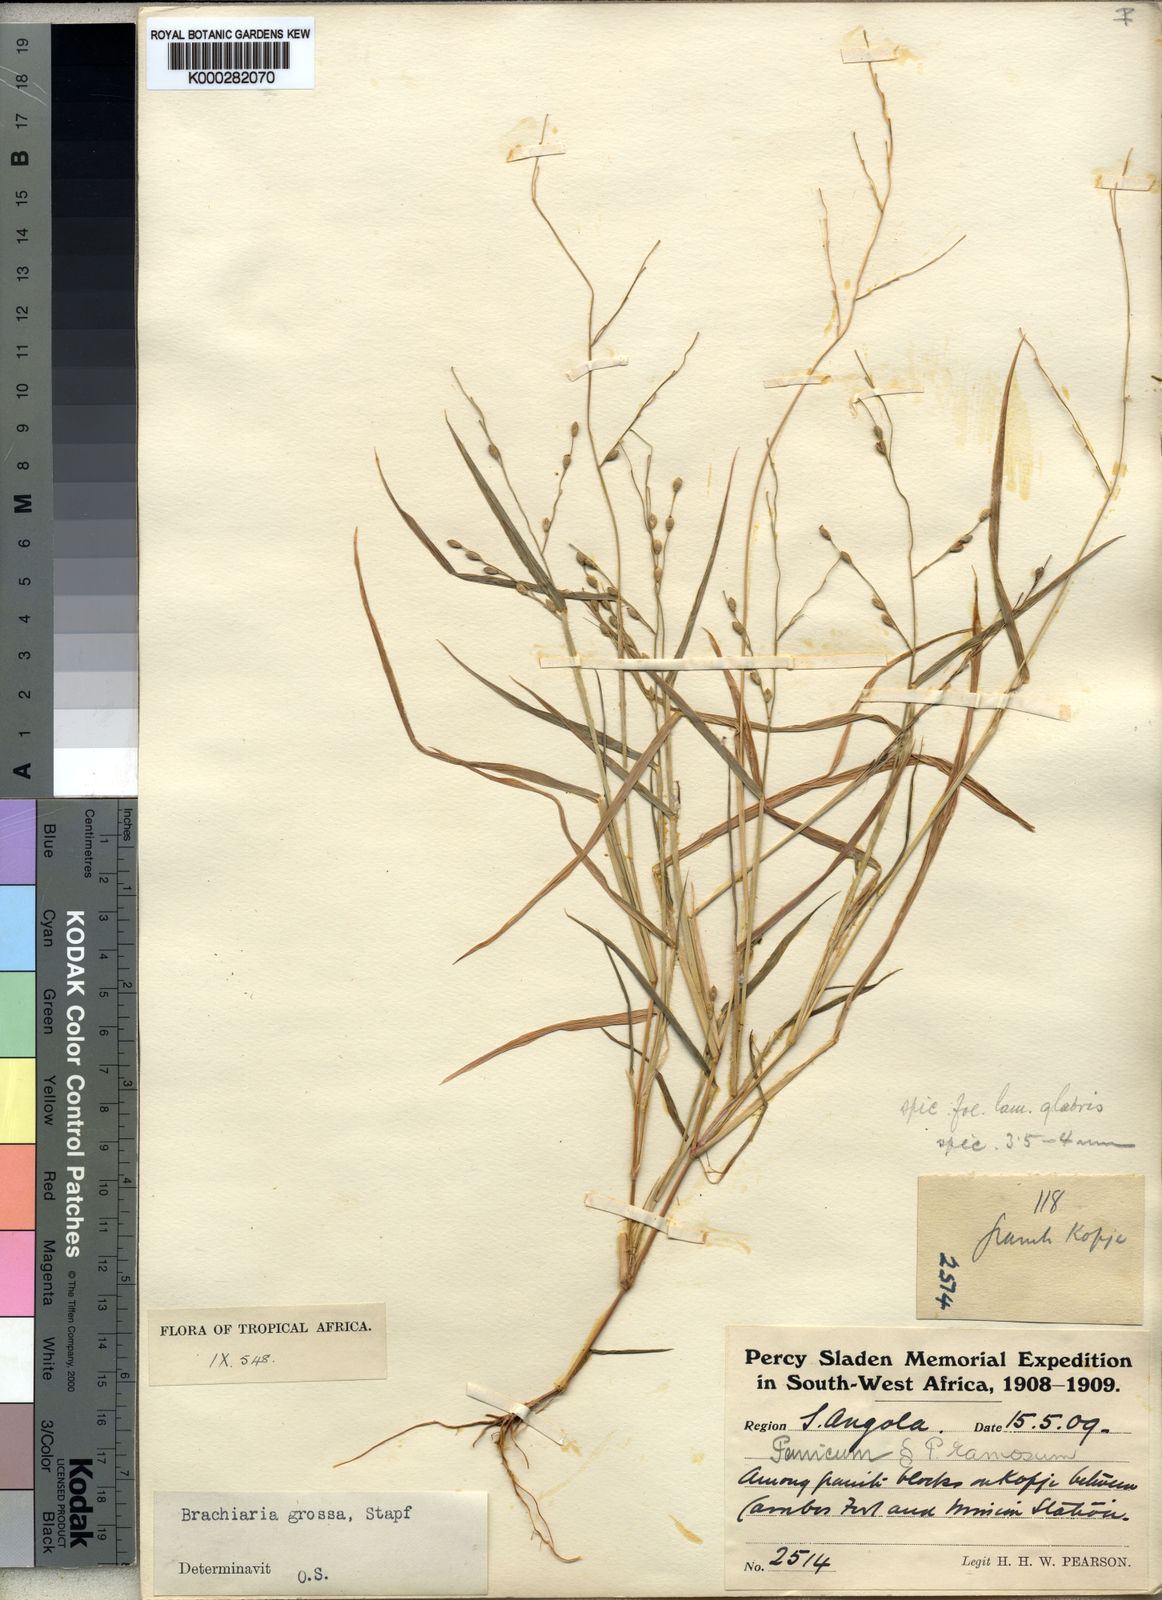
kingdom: Plantae
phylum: Tracheophyta
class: Liliopsida
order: Poales
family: Poaceae
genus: Urochloa
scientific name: Urochloa Brachiaria grossa
